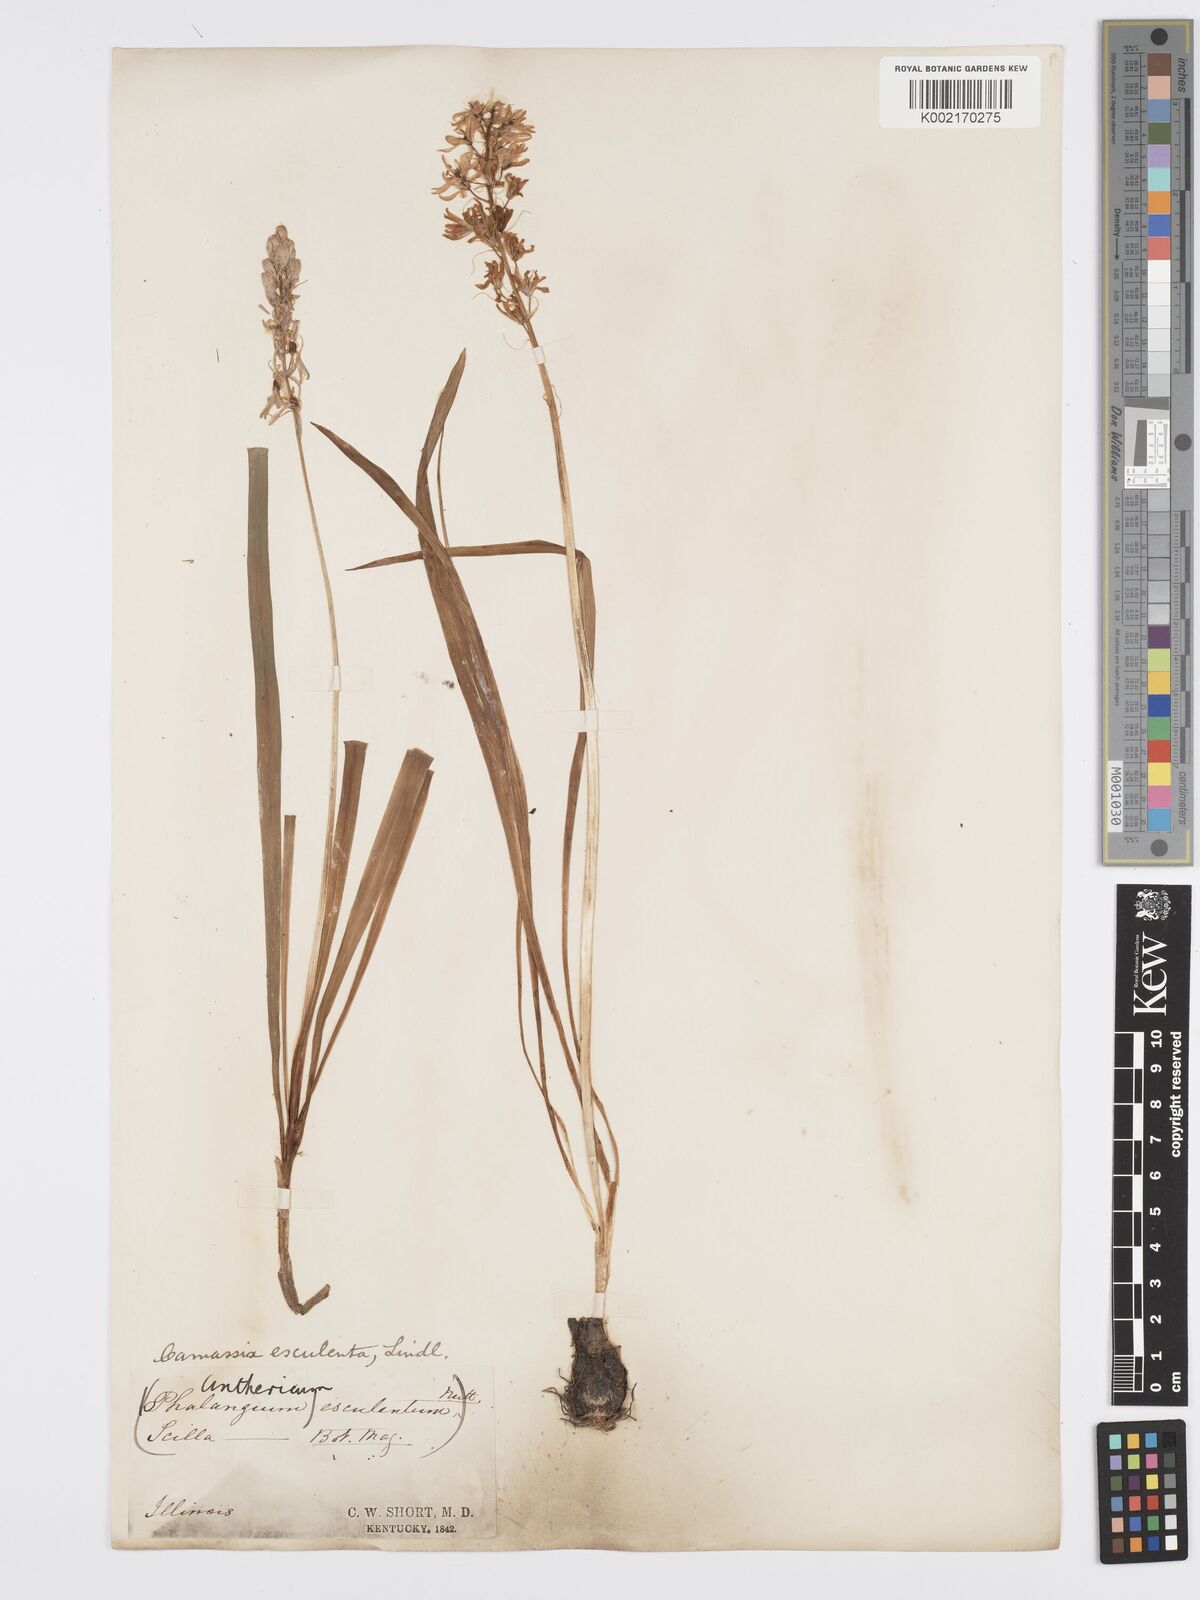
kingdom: Plantae
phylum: Tracheophyta
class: Liliopsida
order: Asparagales
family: Asparagaceae
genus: Camassia
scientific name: Camassia leichtlinii
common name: Leichtlin's camas
